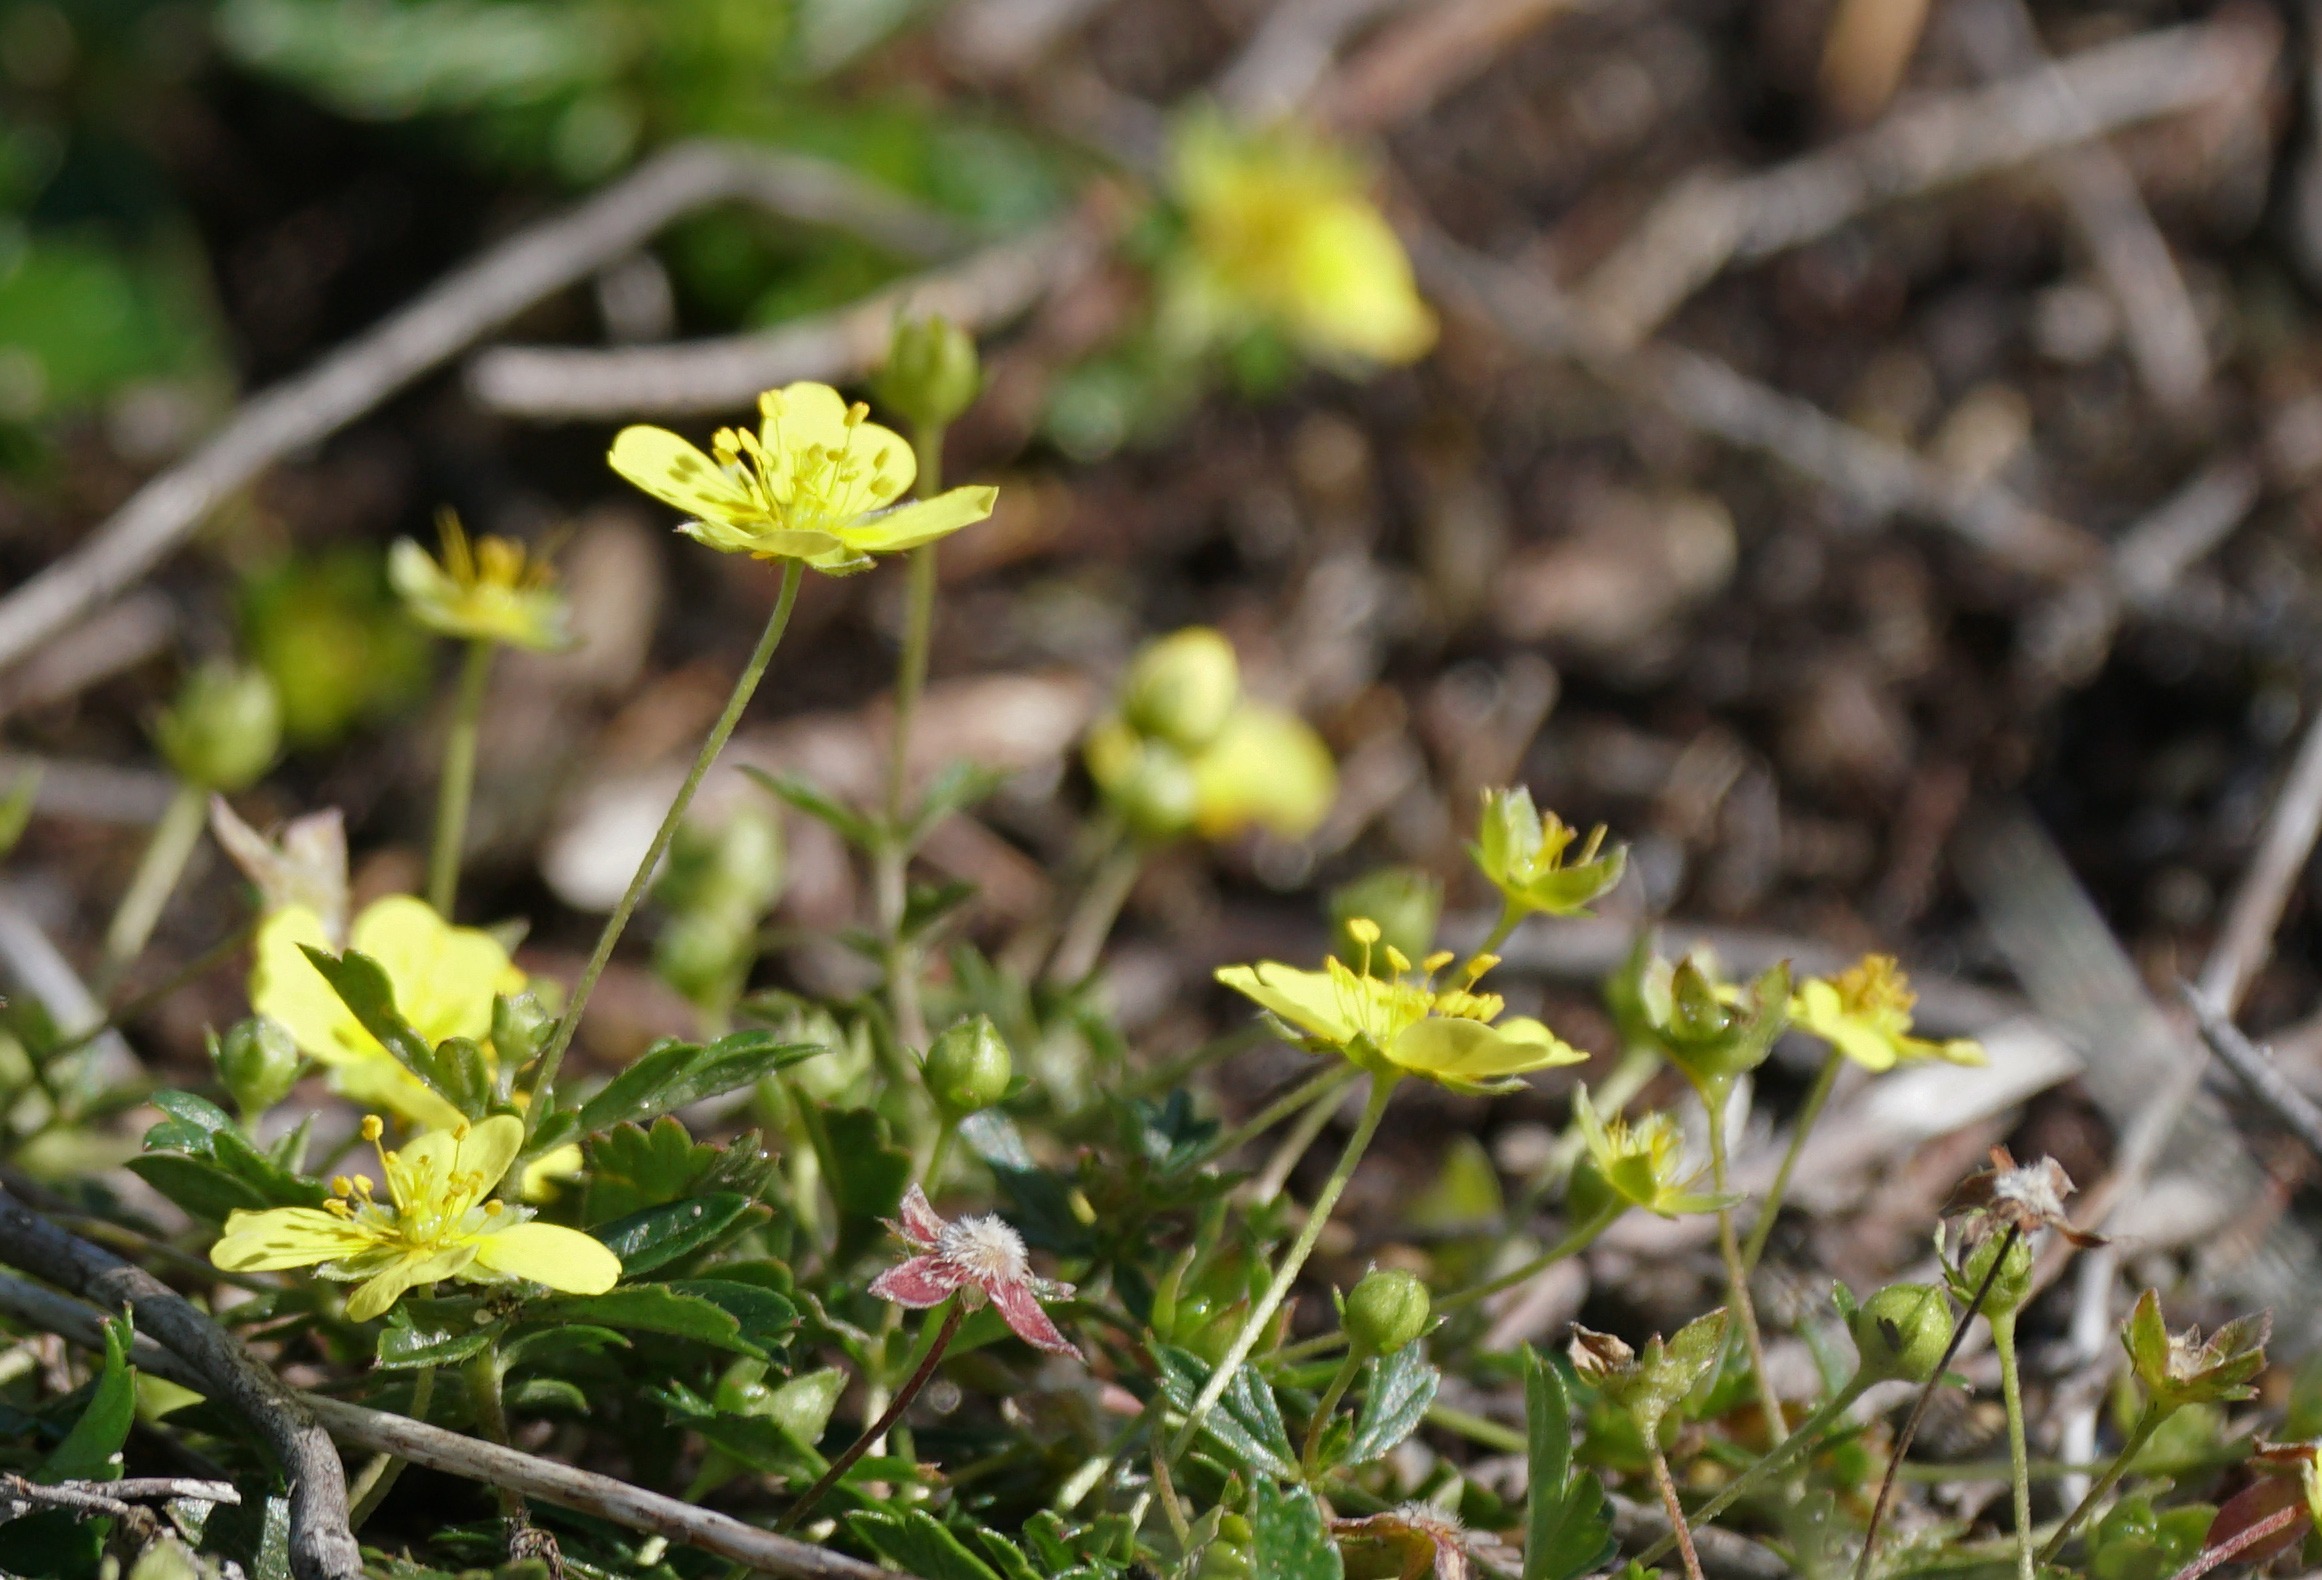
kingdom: Plantae
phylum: Tracheophyta
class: Magnoliopsida
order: Rosales
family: Rosaceae
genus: Potentilla
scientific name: Potentilla erecta
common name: Tormentil
